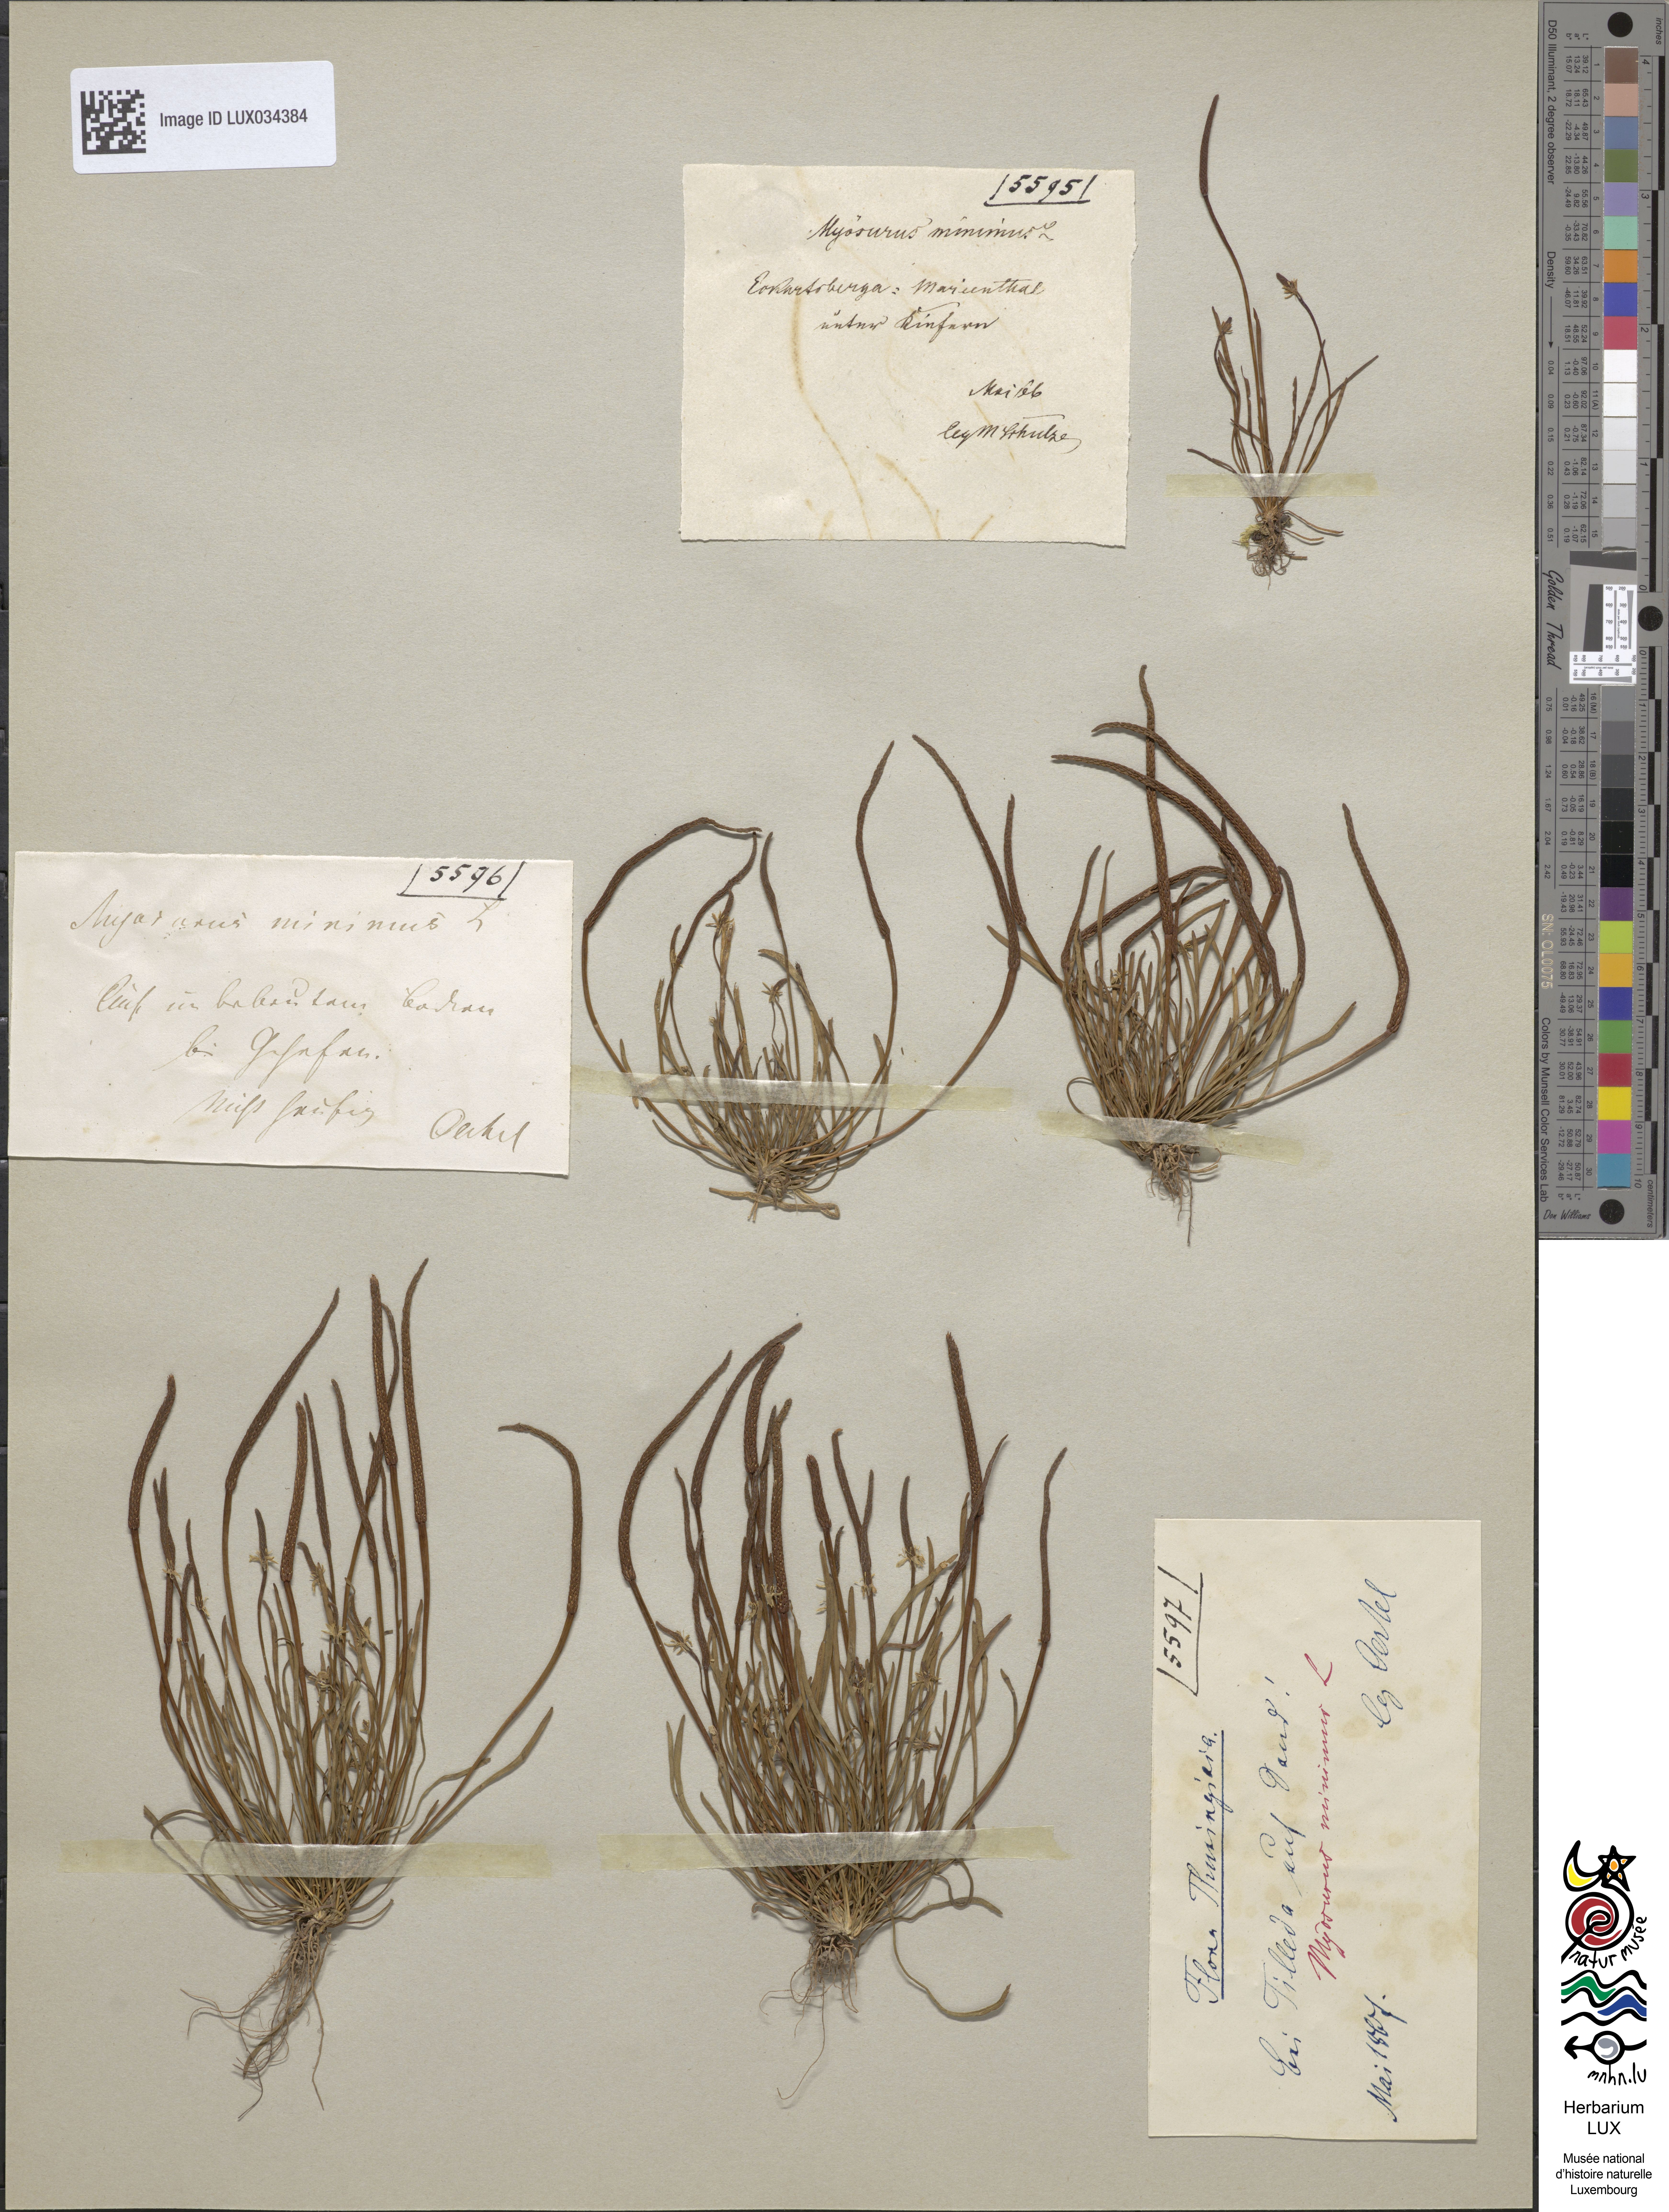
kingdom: Plantae
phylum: Tracheophyta
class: Magnoliopsida
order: Ranunculales
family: Ranunculaceae
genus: Myosurus
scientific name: Myosurus minimus
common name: Mousetail
